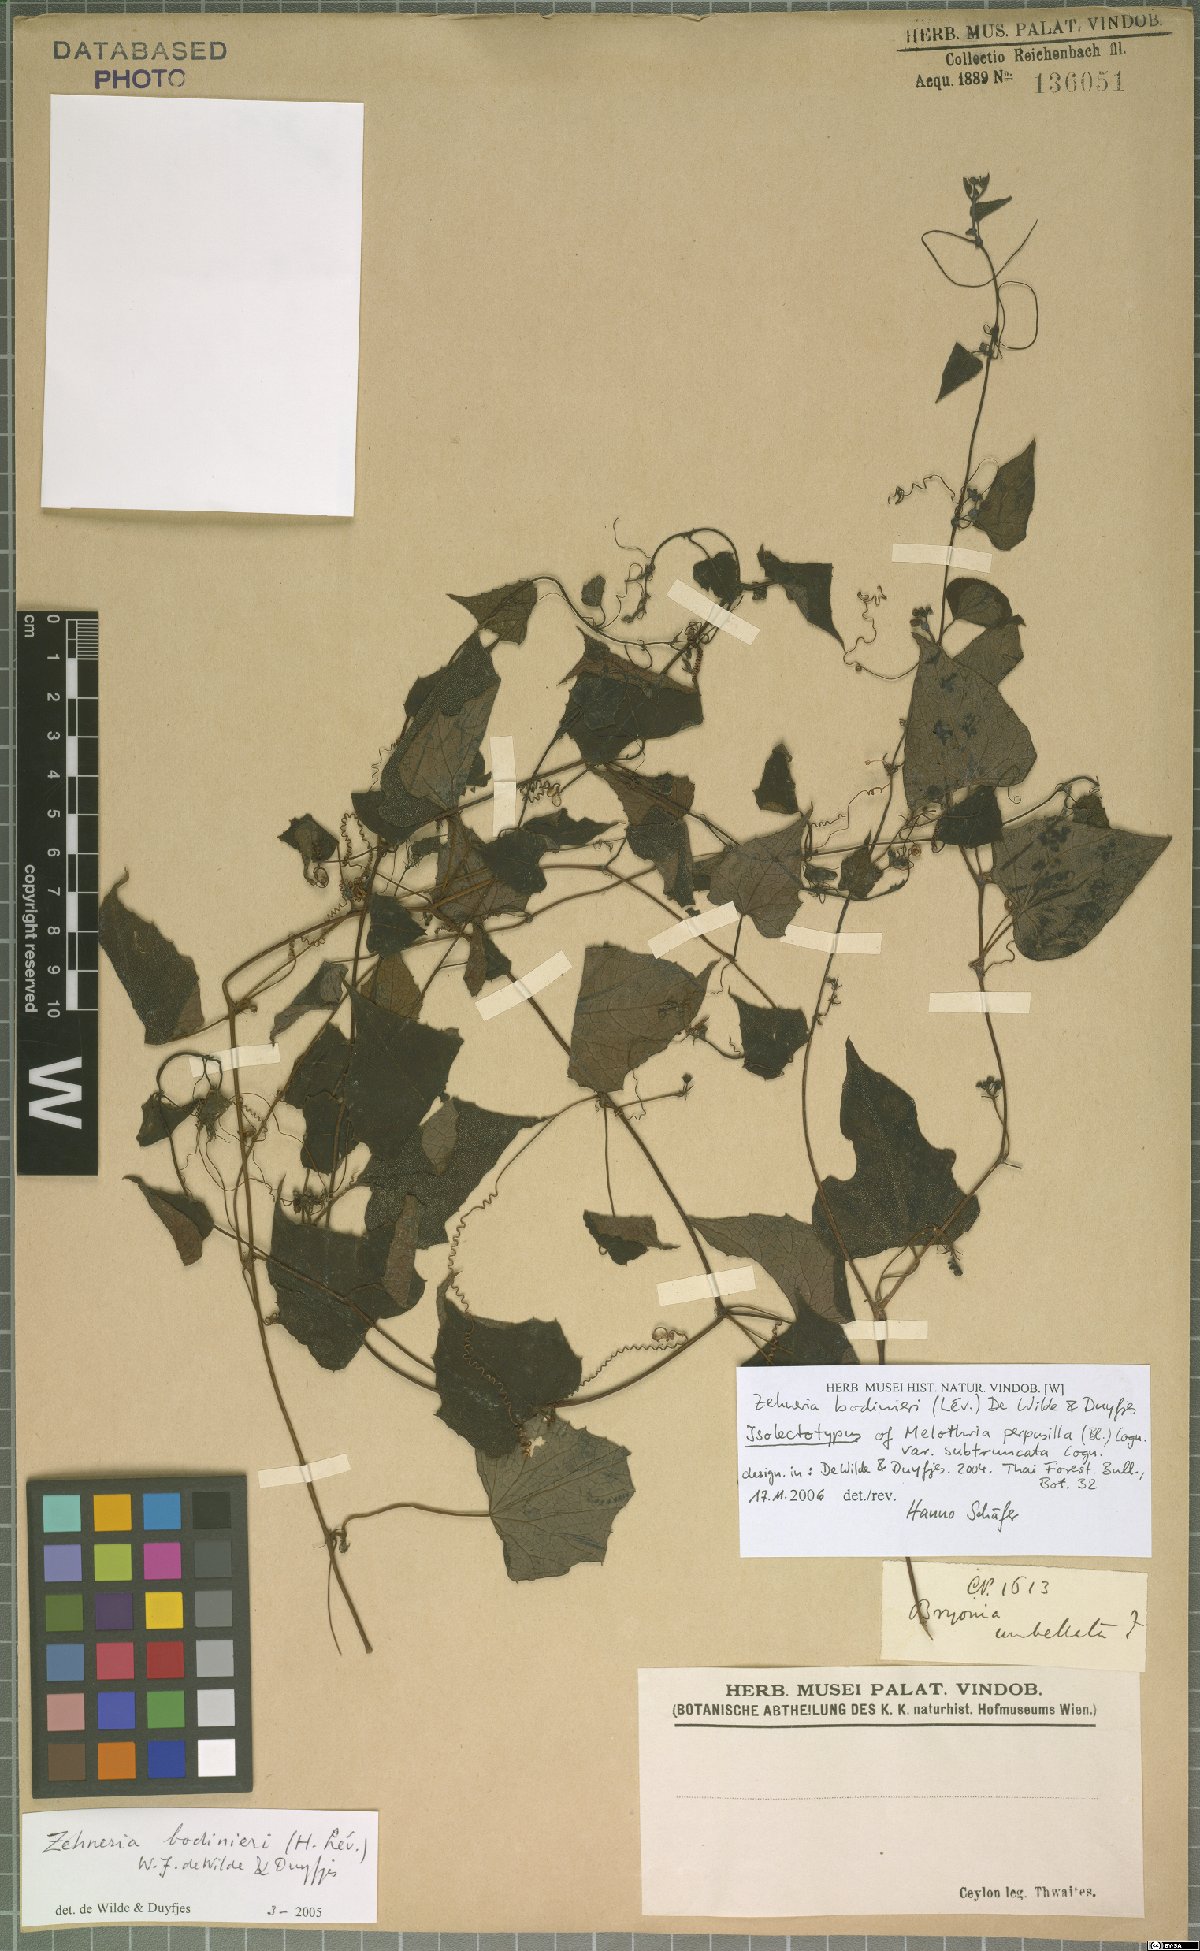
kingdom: Plantae
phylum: Tracheophyta
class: Magnoliopsida
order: Cucurbitales
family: Cucurbitaceae
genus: Zehneria
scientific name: Zehneria bodinieri
